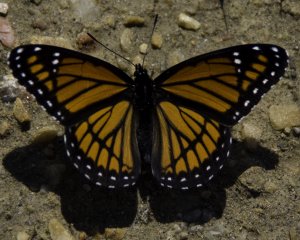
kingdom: Animalia
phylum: Arthropoda
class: Insecta
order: Lepidoptera
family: Nymphalidae
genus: Limenitis
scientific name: Limenitis archippus
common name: Viceroy
